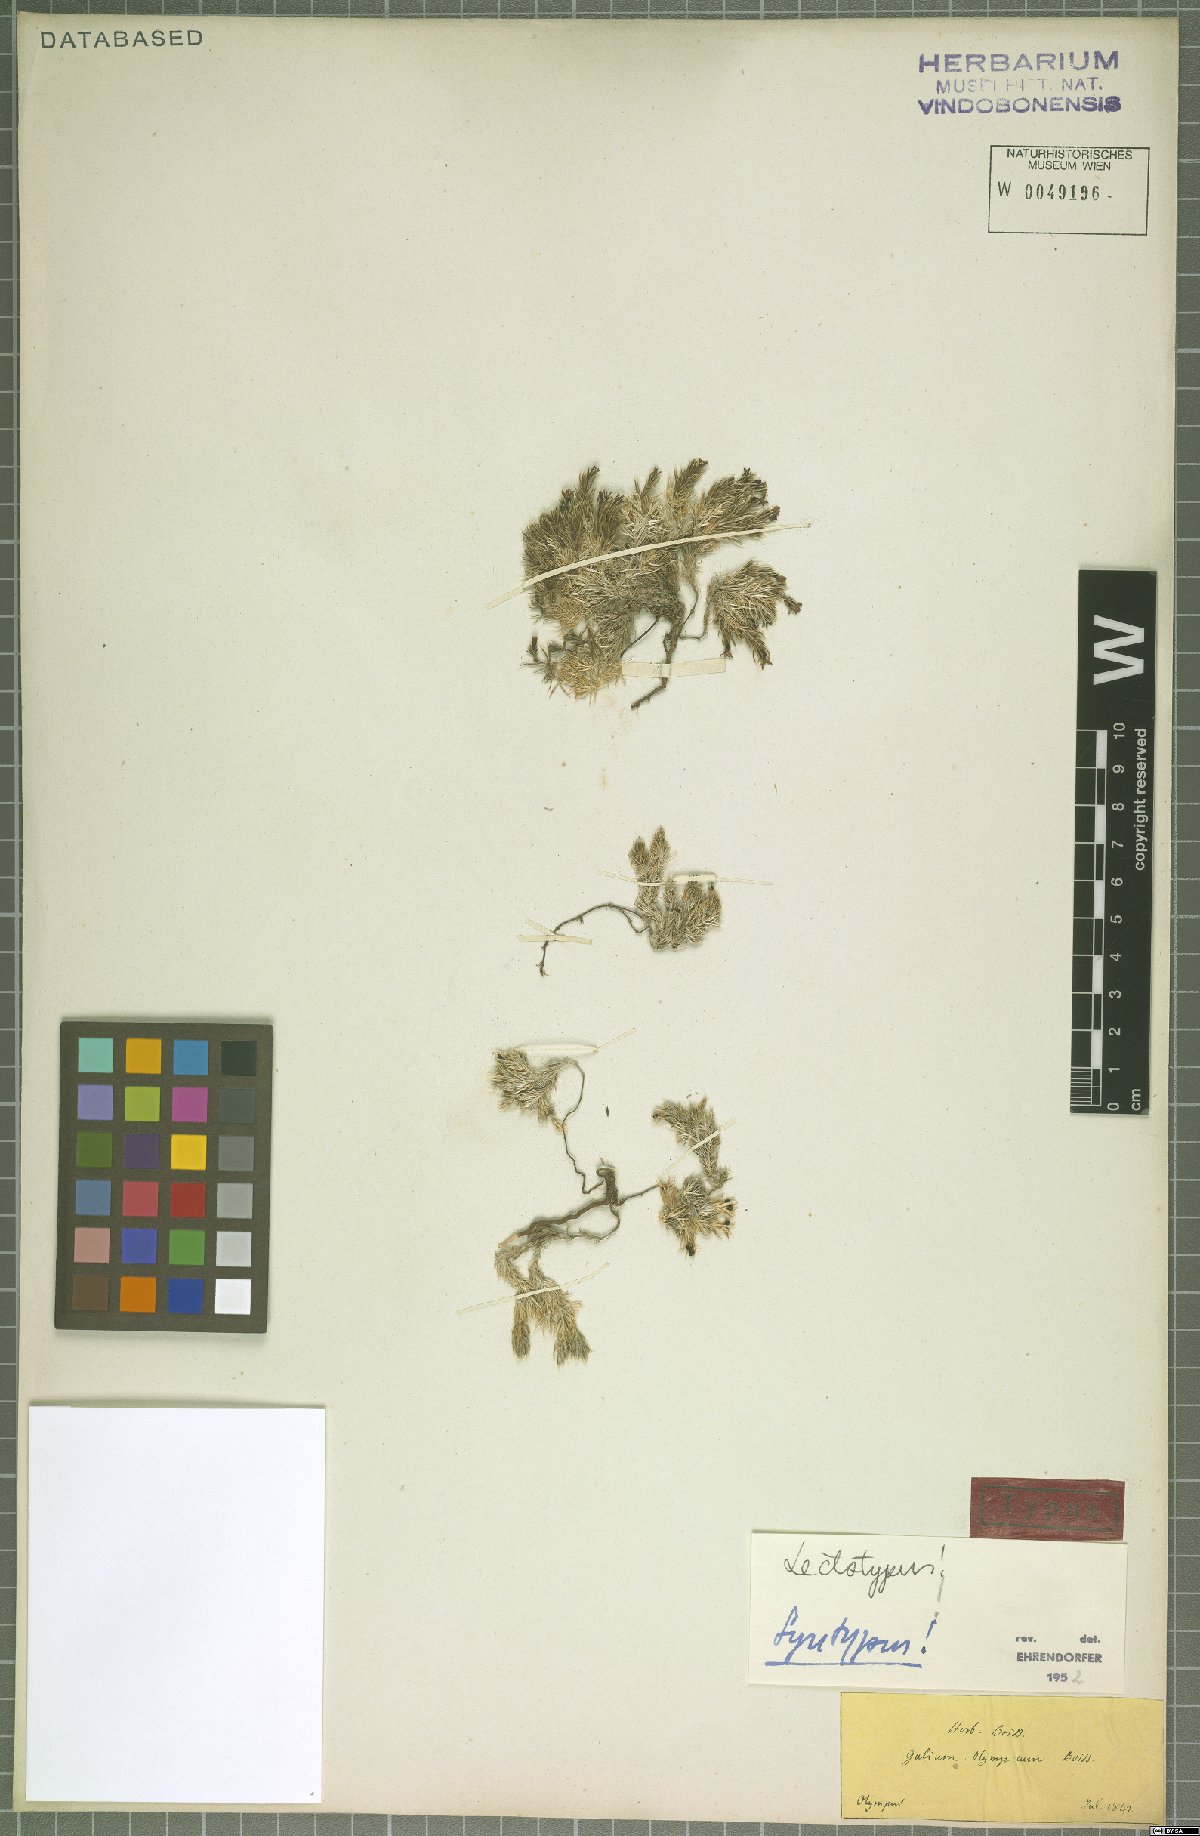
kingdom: Plantae
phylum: Tracheophyta
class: Magnoliopsida
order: Gentianales
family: Rubiaceae
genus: Galium
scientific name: Galium olympicum
